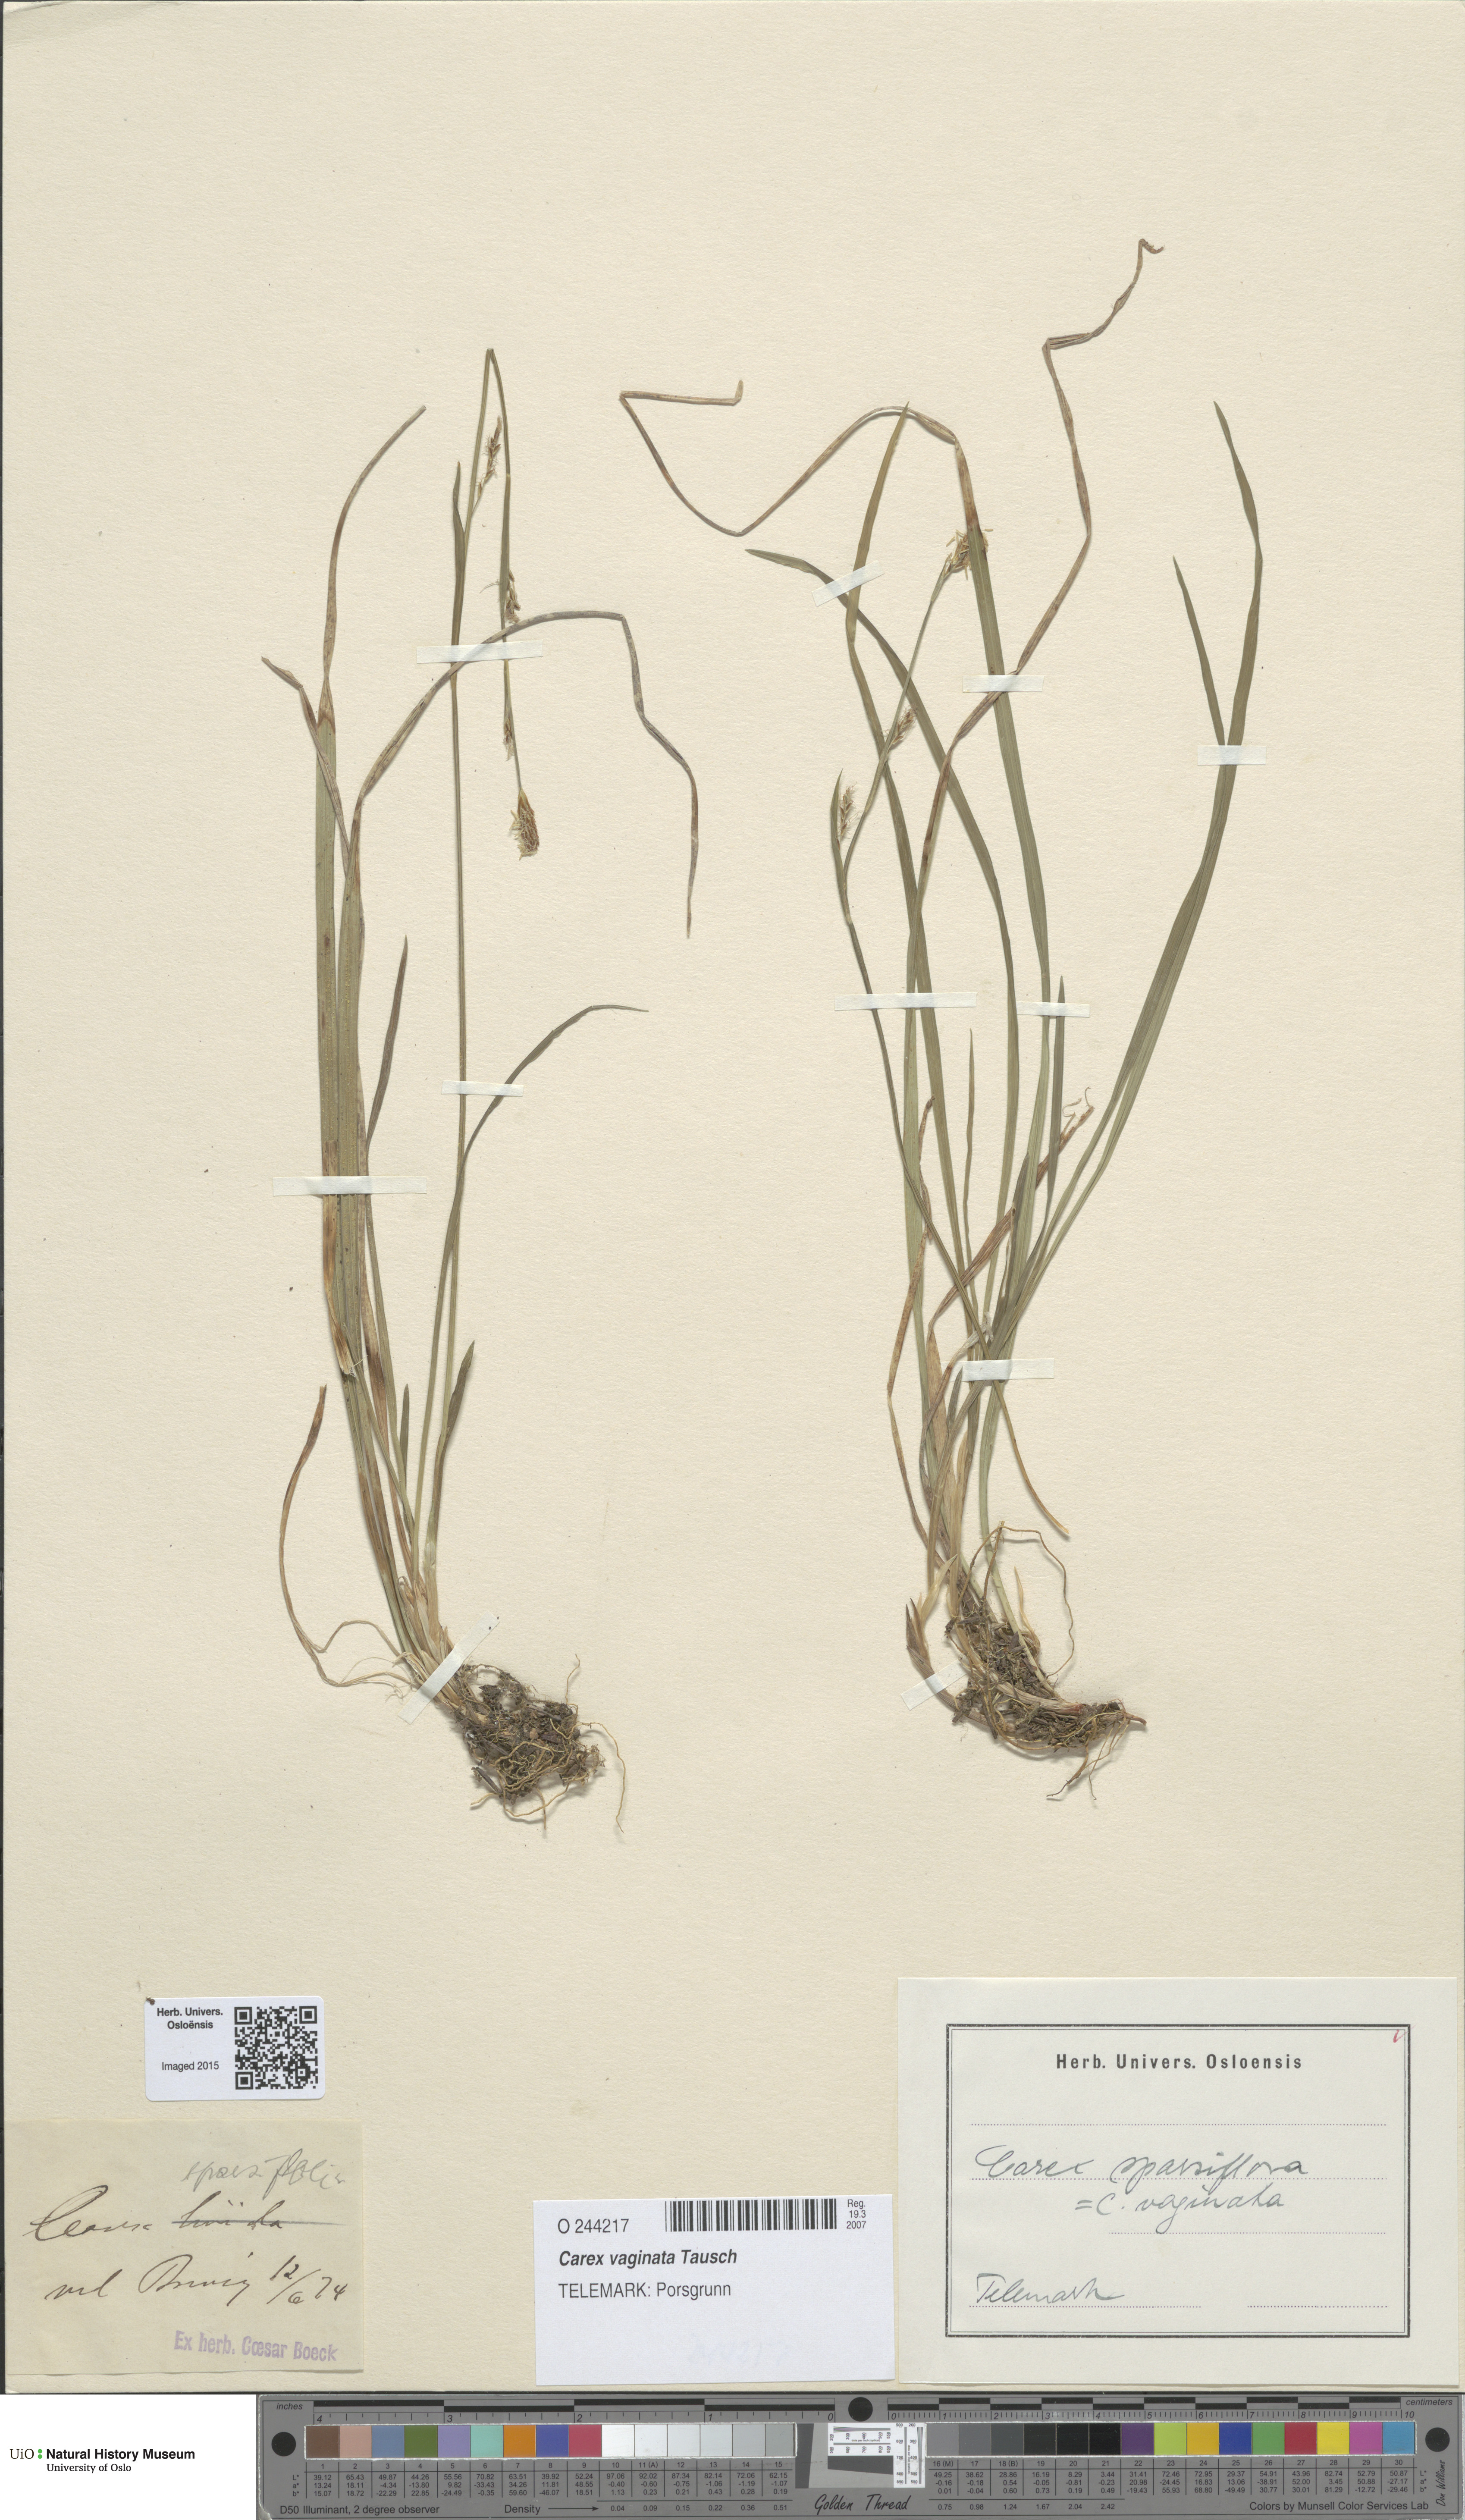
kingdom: Plantae
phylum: Tracheophyta
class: Liliopsida
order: Poales
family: Cyperaceae
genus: Carex
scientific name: Carex vaginata
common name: Sheathed sedge
